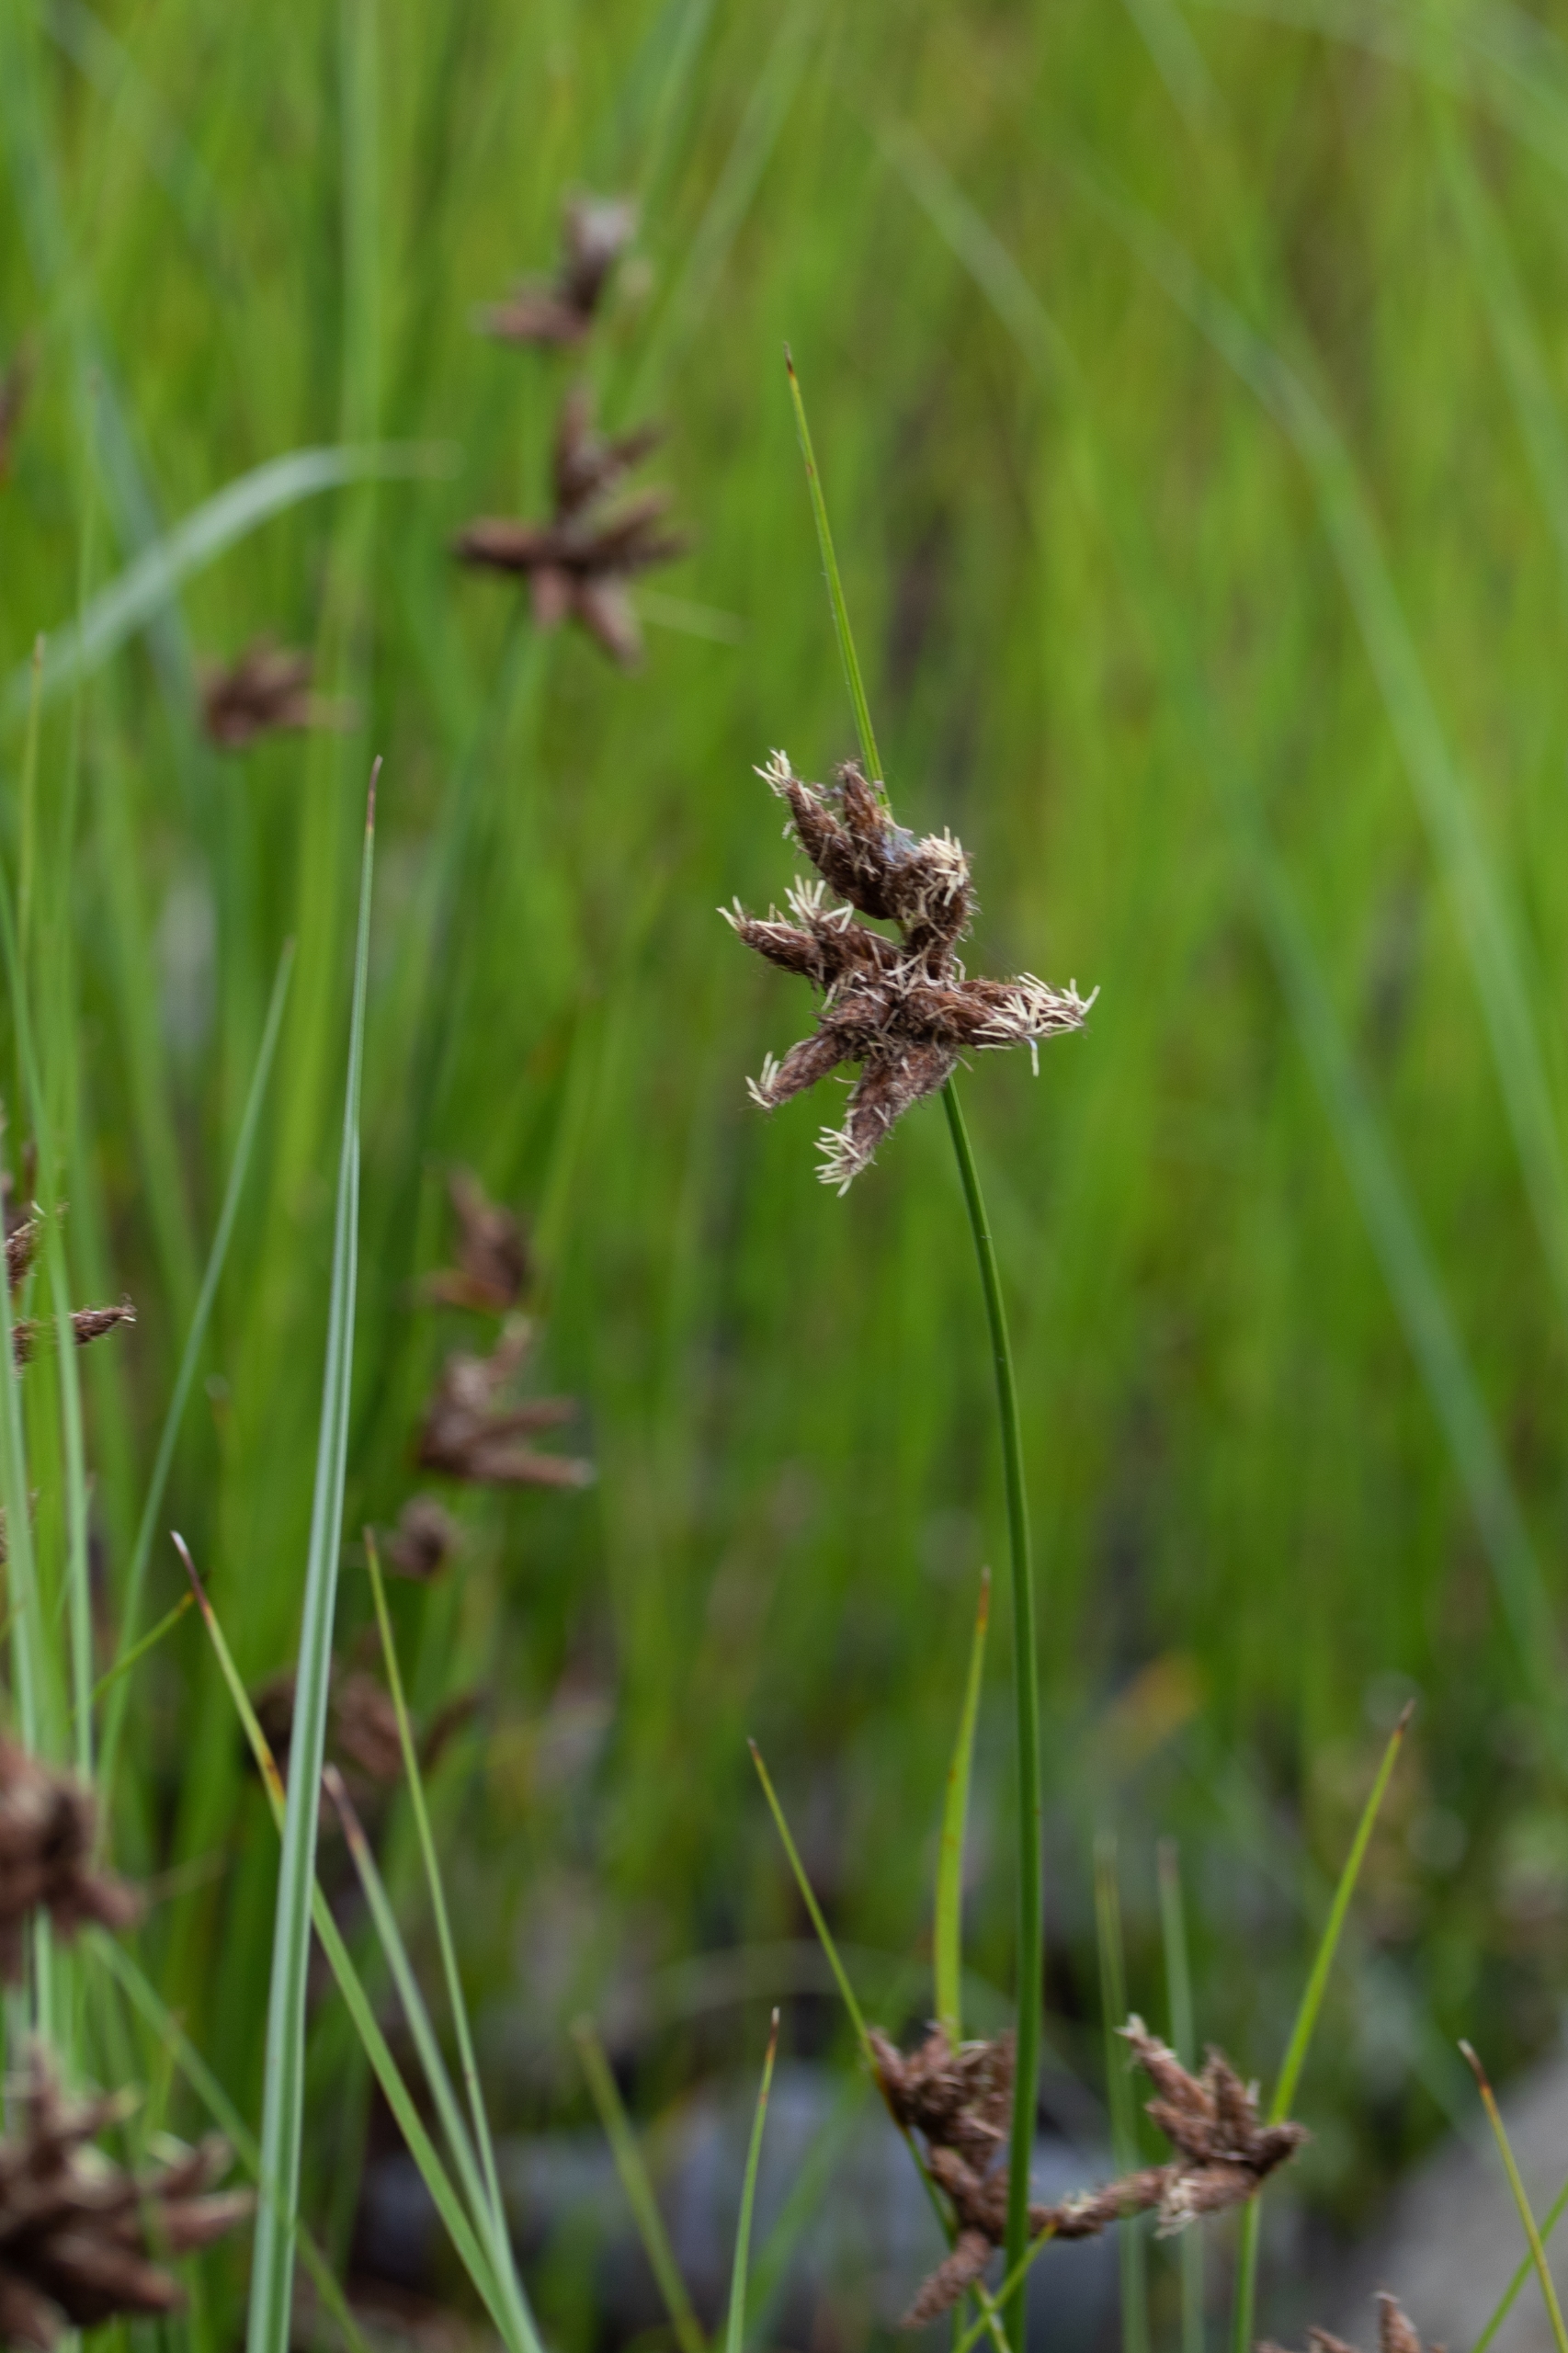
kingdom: Plantae
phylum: Tracheophyta
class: Liliopsida
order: Poales
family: Cyperaceae
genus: Bolboschoenus
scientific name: Bolboschoenus maritimus
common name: Strand-kogleaks
